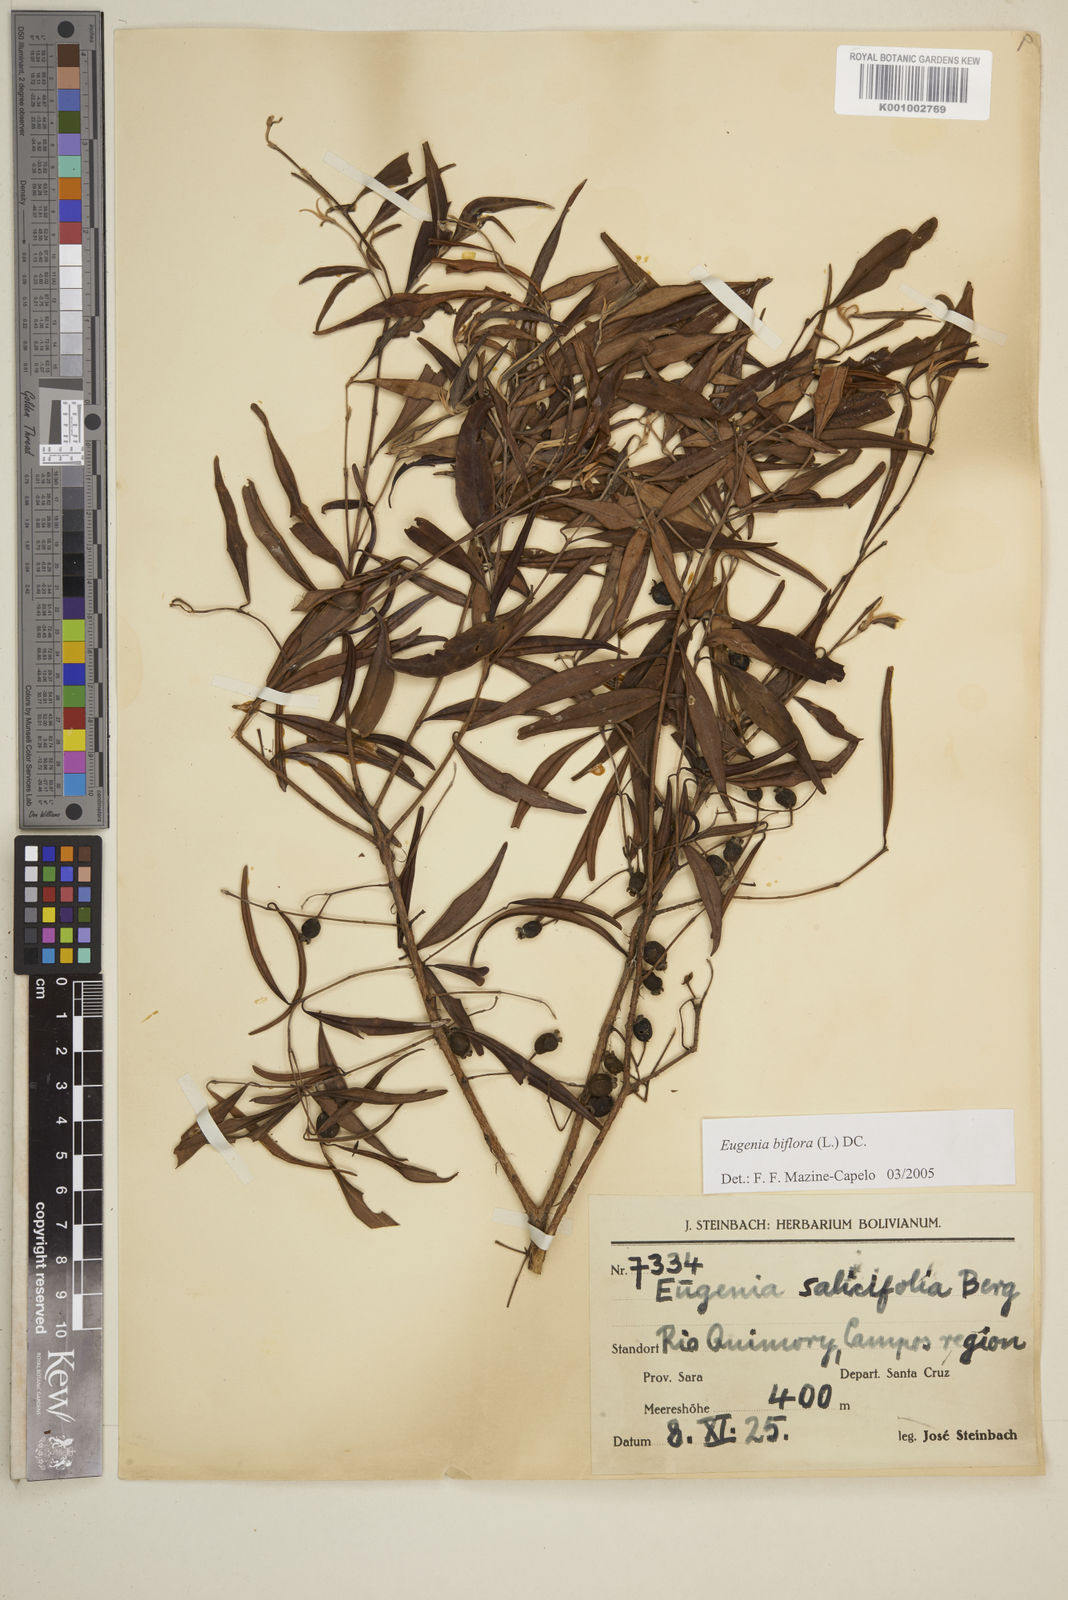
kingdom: Plantae
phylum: Tracheophyta
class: Magnoliopsida
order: Myrtales
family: Myrtaceae
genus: Eugenia
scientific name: Eugenia biflora
